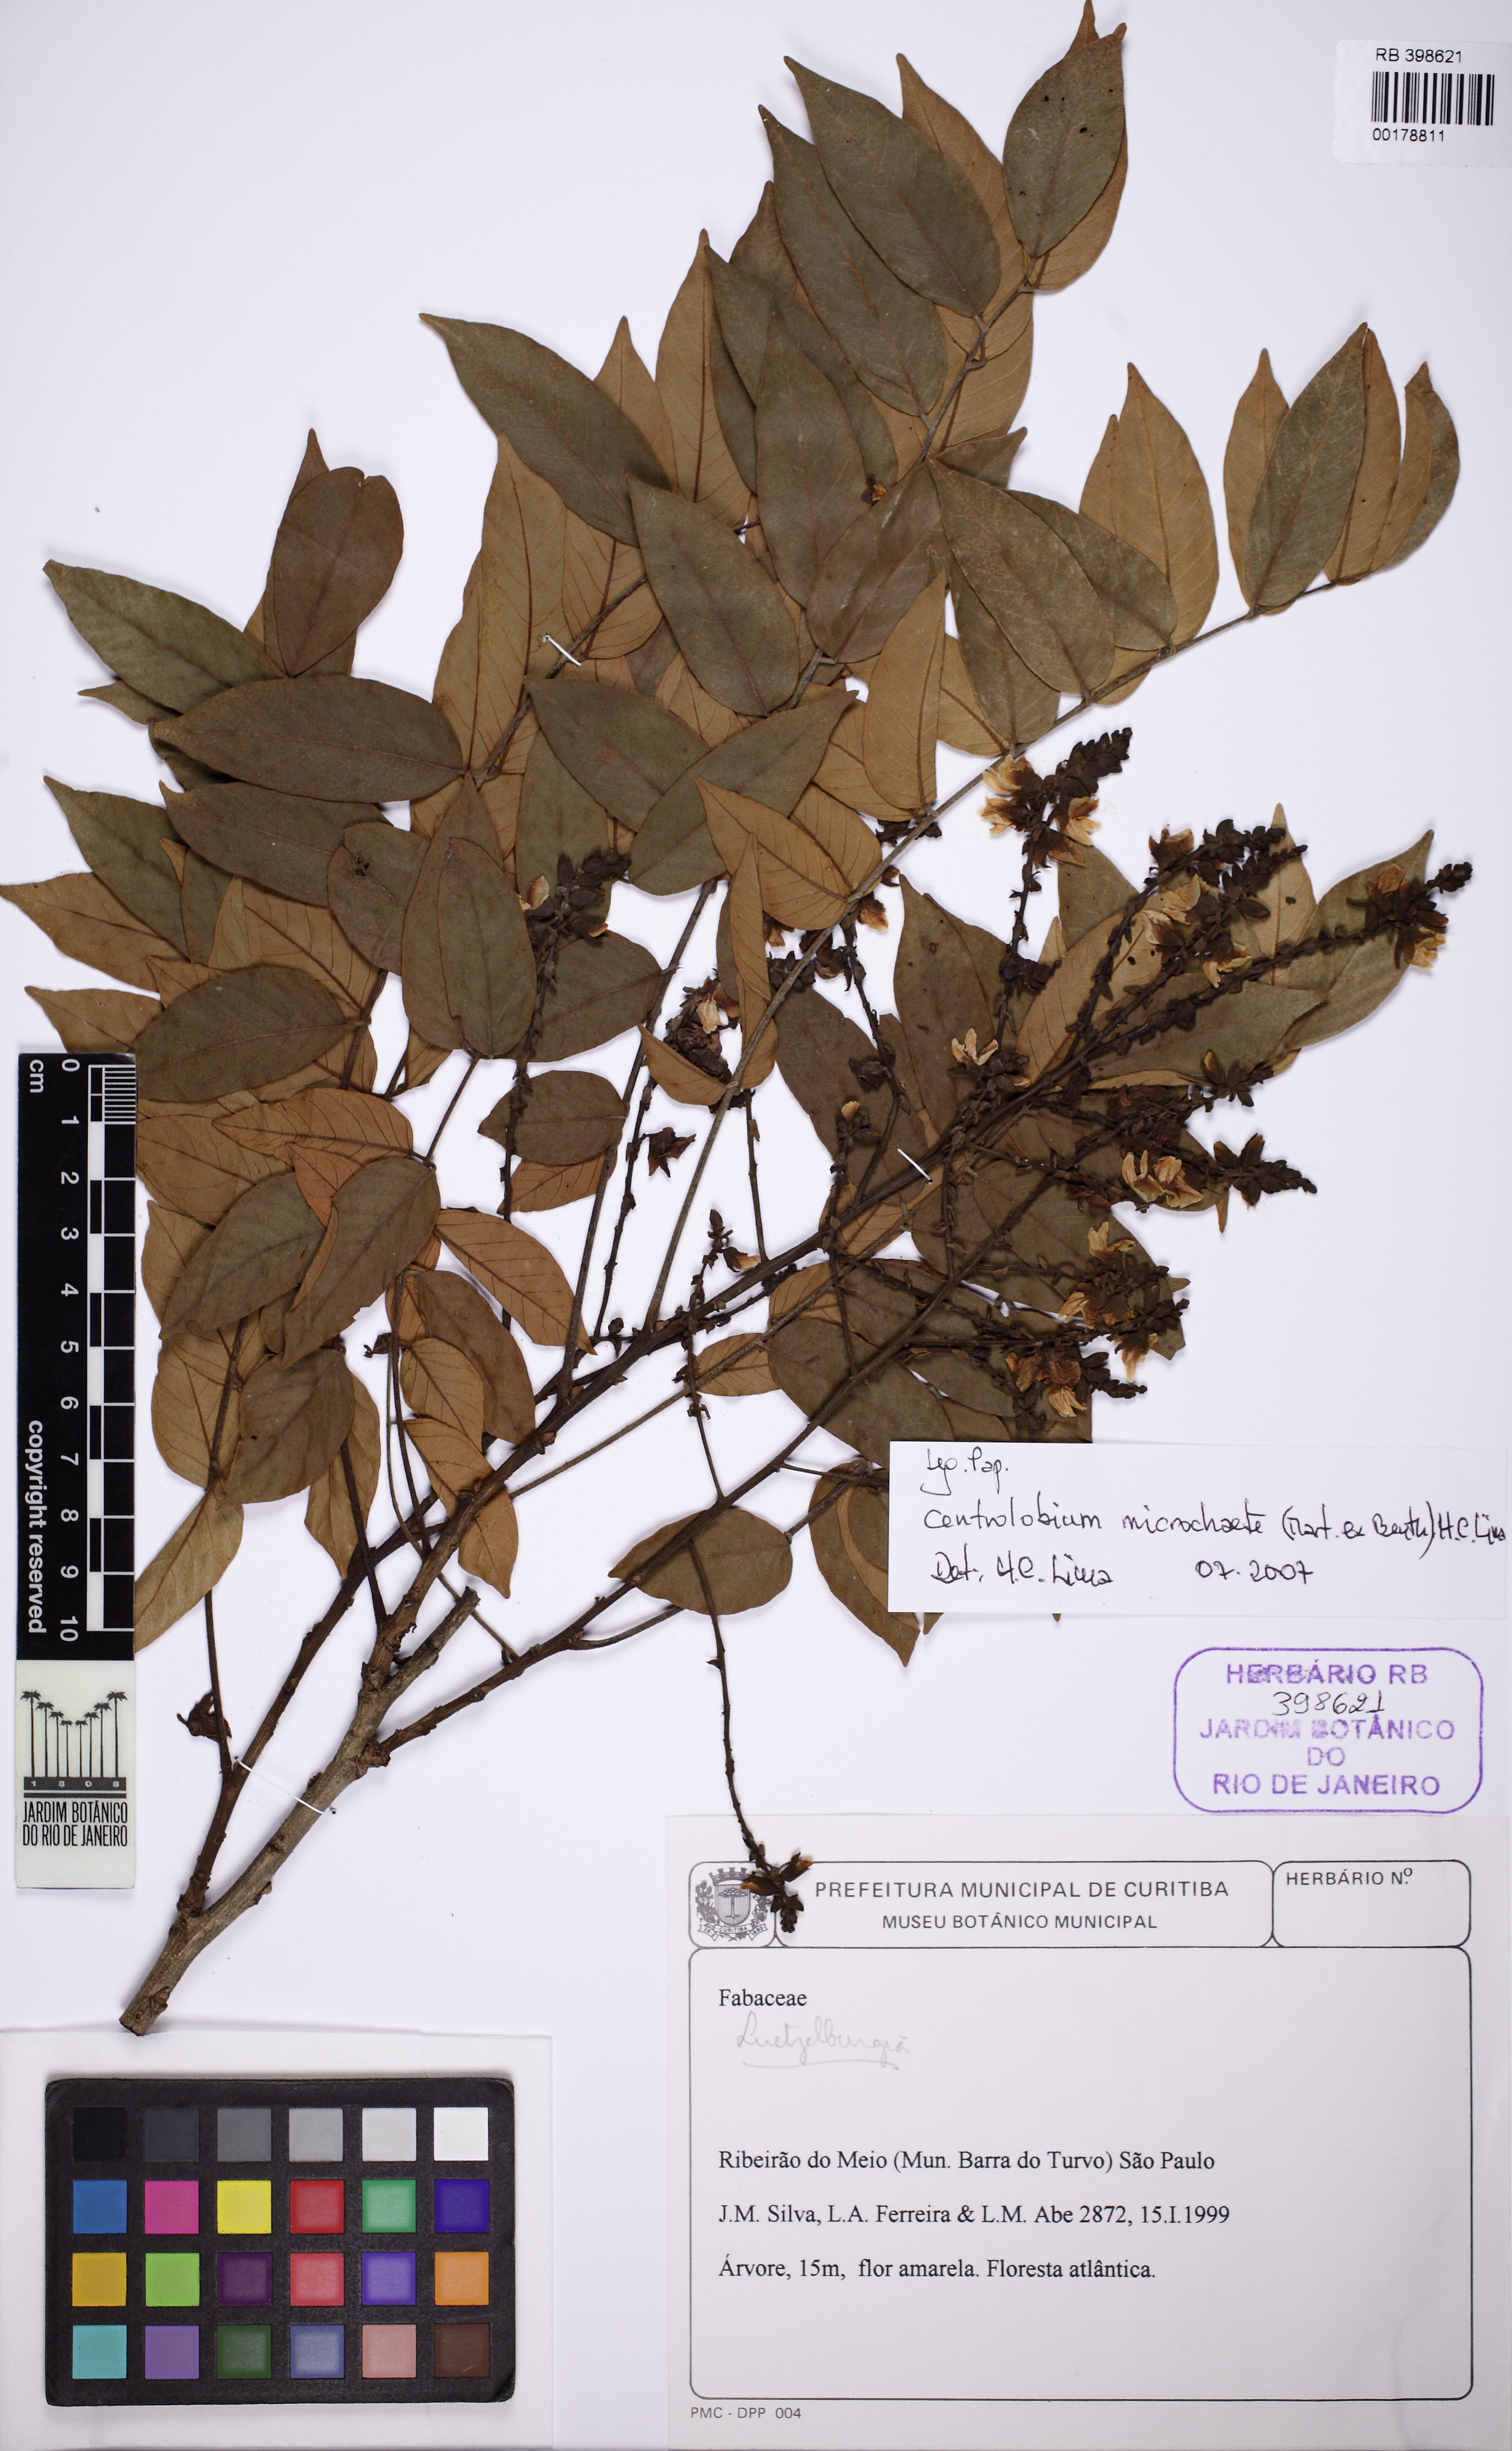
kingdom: Plantae
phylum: Tracheophyta
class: Magnoliopsida
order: Fabales
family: Fabaceae
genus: Centrolobium
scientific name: Centrolobium microchaete
